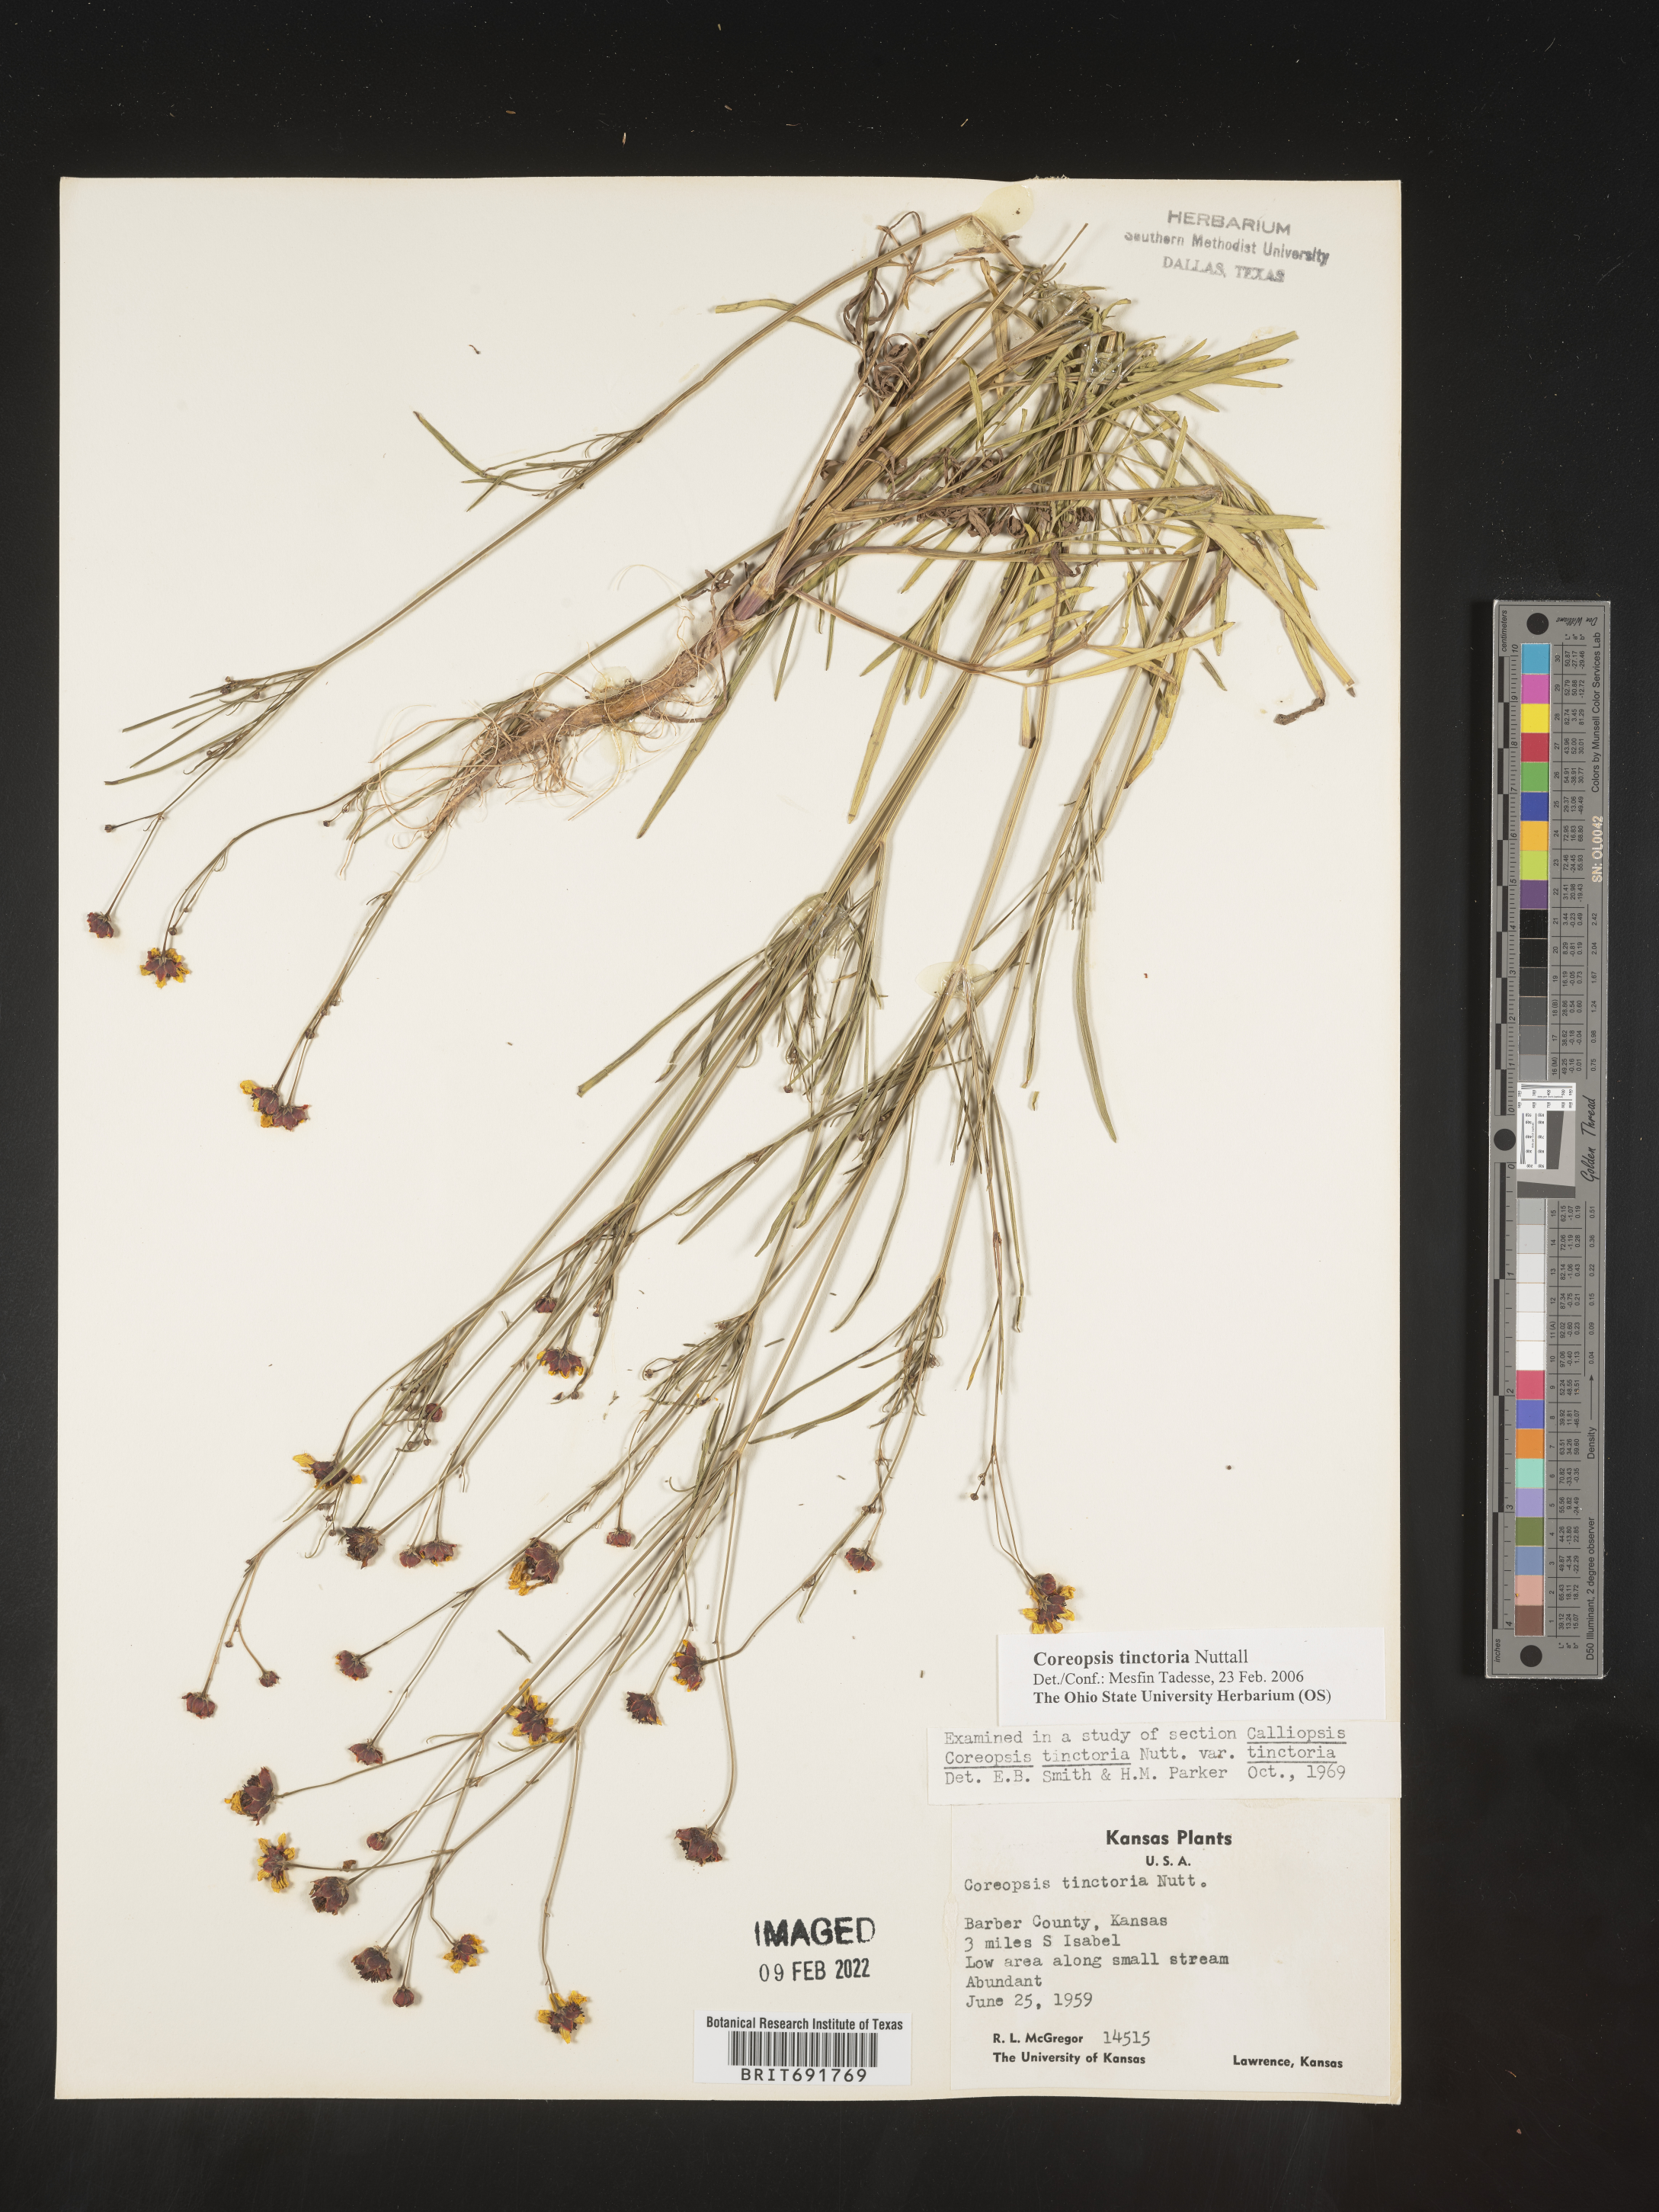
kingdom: Plantae
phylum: Tracheophyta
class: Magnoliopsida
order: Asterales
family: Asteraceae
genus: Coreopsis
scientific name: Coreopsis tinctoria
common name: Garden tickseed
